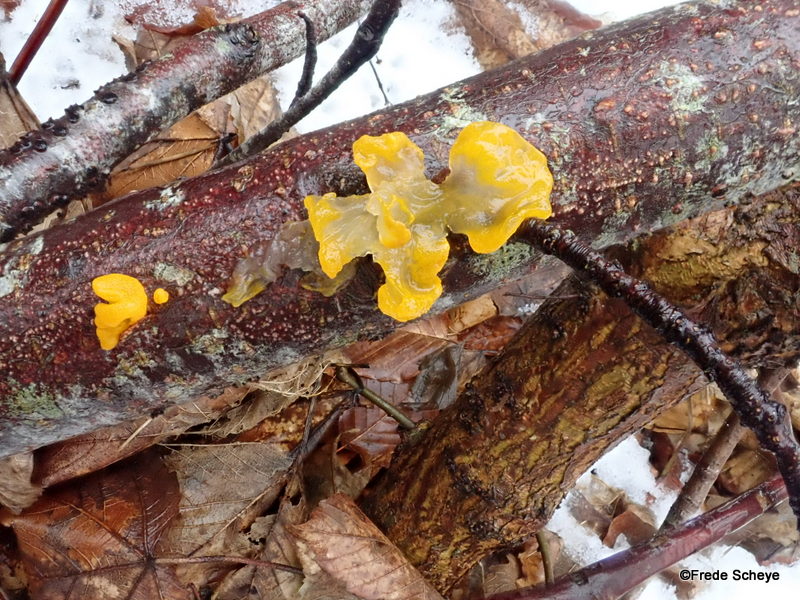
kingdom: Fungi
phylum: Basidiomycota
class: Tremellomycetes
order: Tremellales
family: Tremellaceae
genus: Tremella
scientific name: Tremella mesenterica
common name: gul bævresvamp
